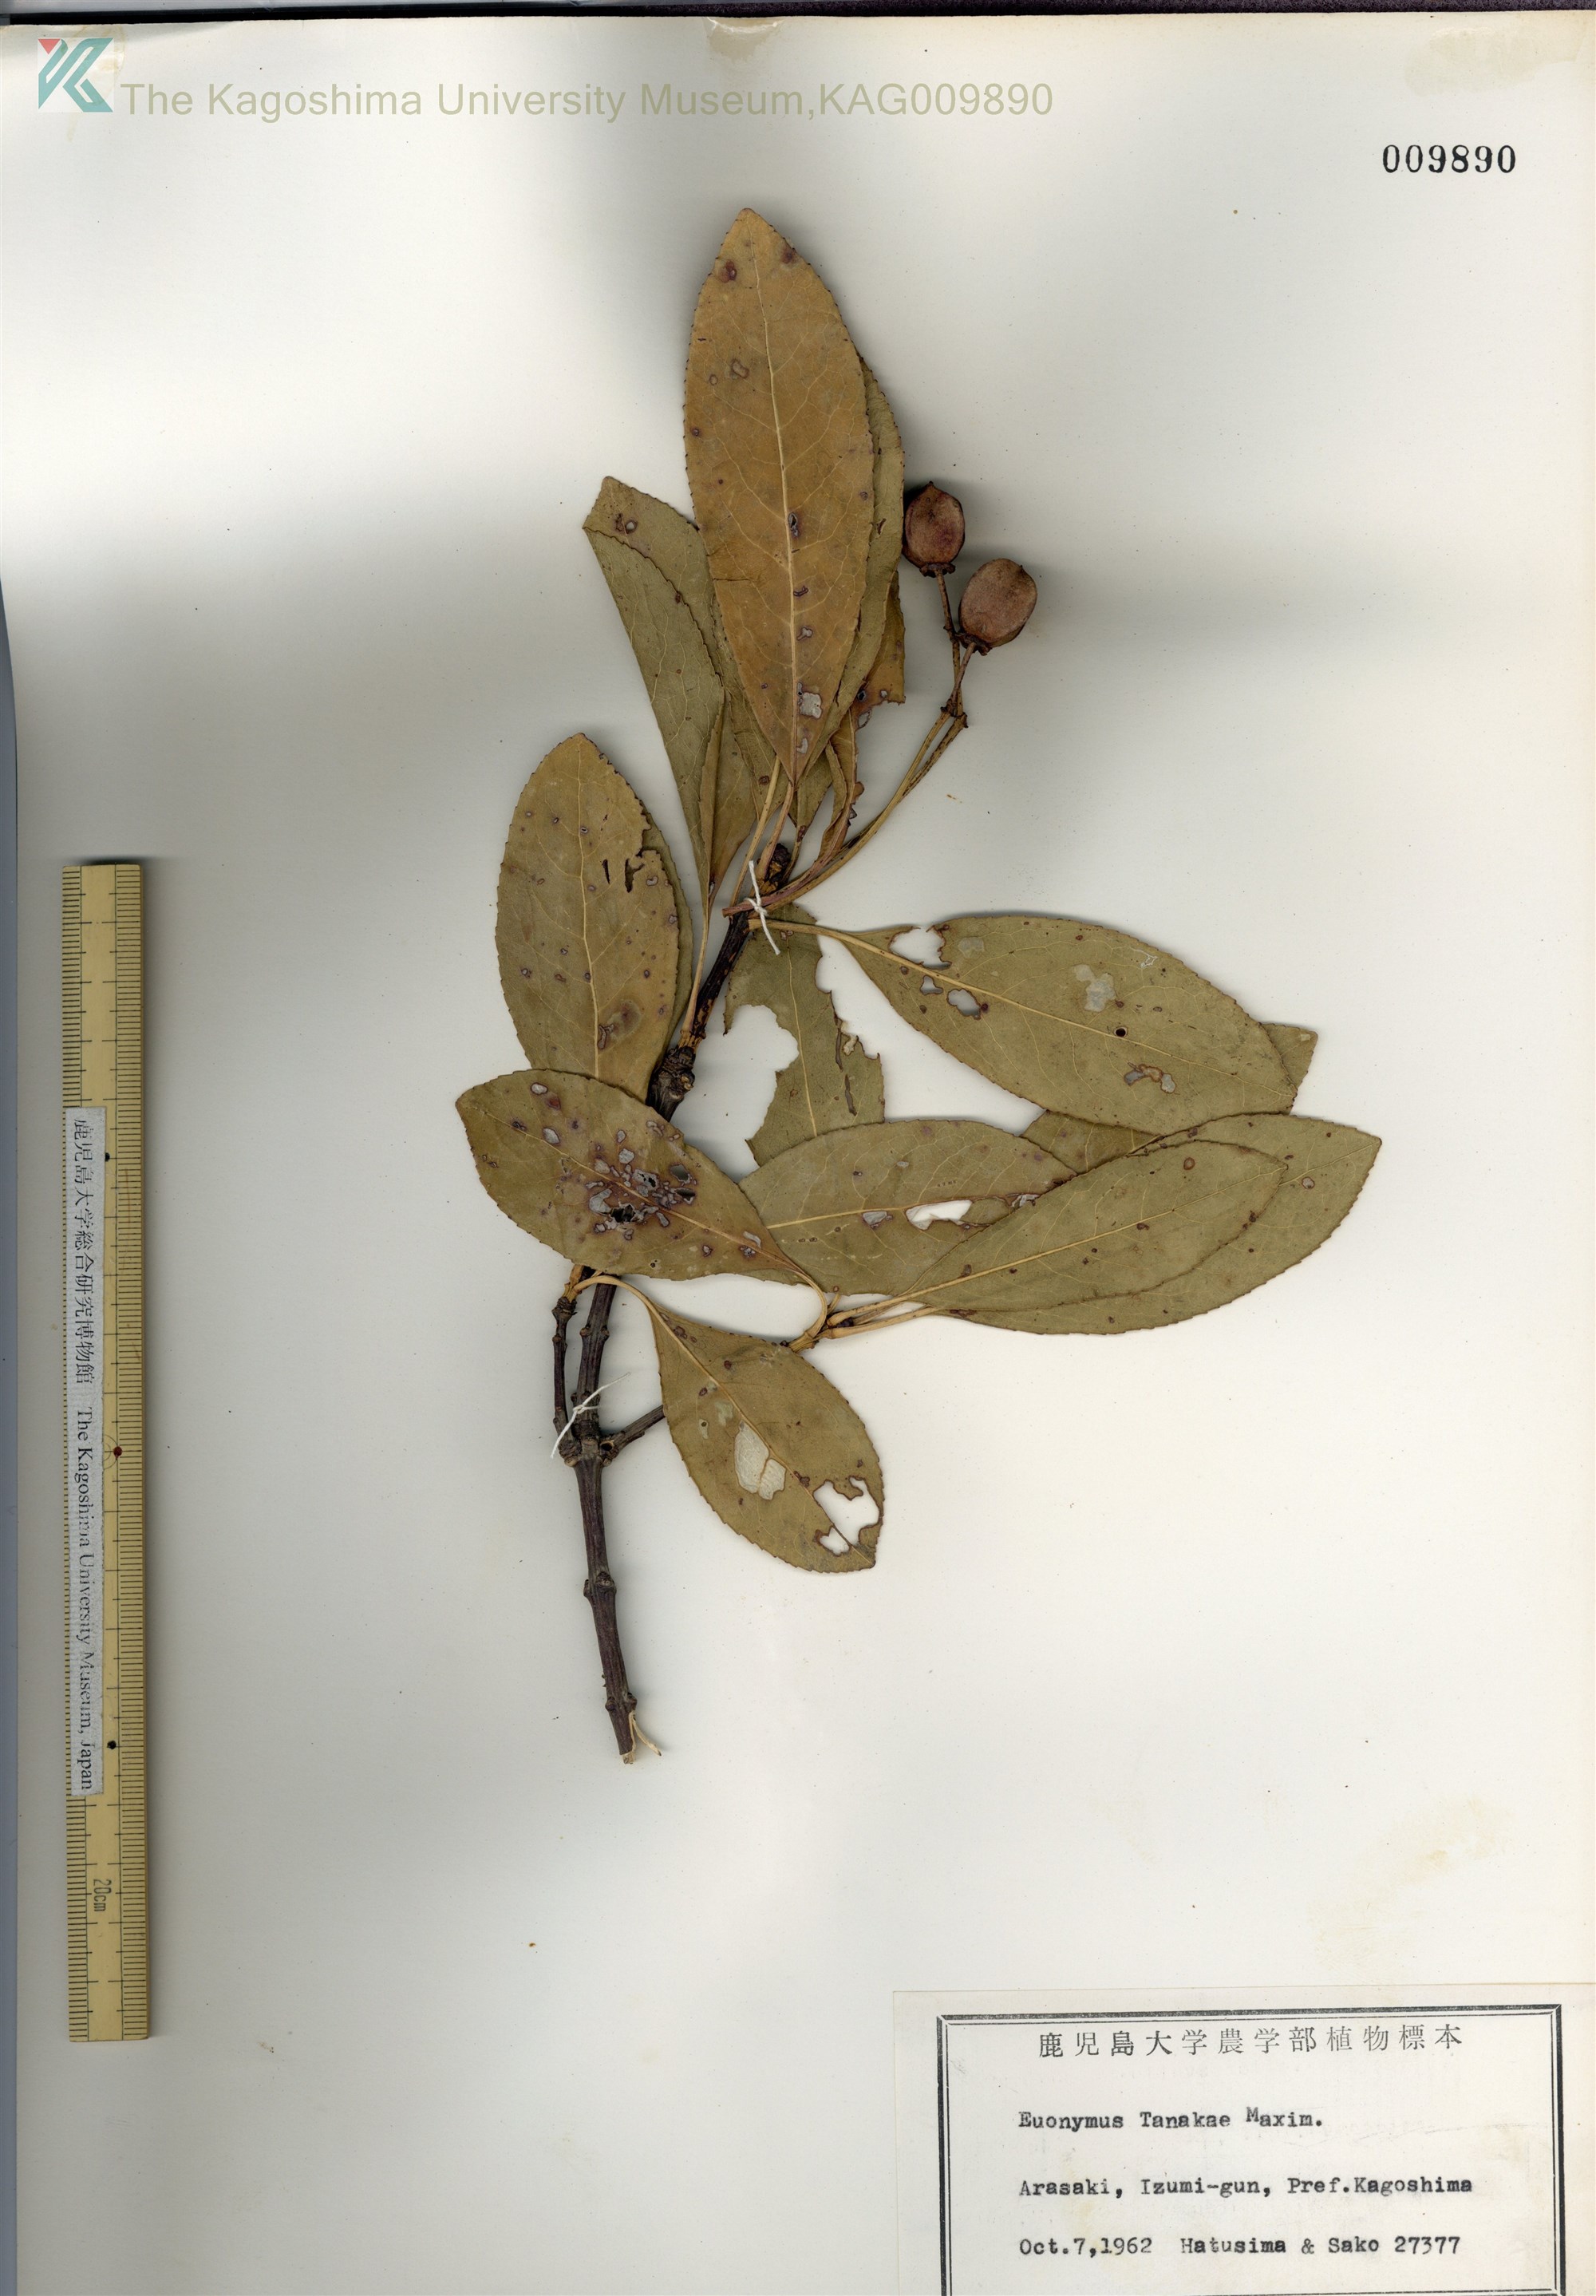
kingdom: Plantae
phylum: Tracheophyta
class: Magnoliopsida
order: Celastrales
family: Celastraceae
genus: Euonymus
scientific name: Euonymus carnosus
